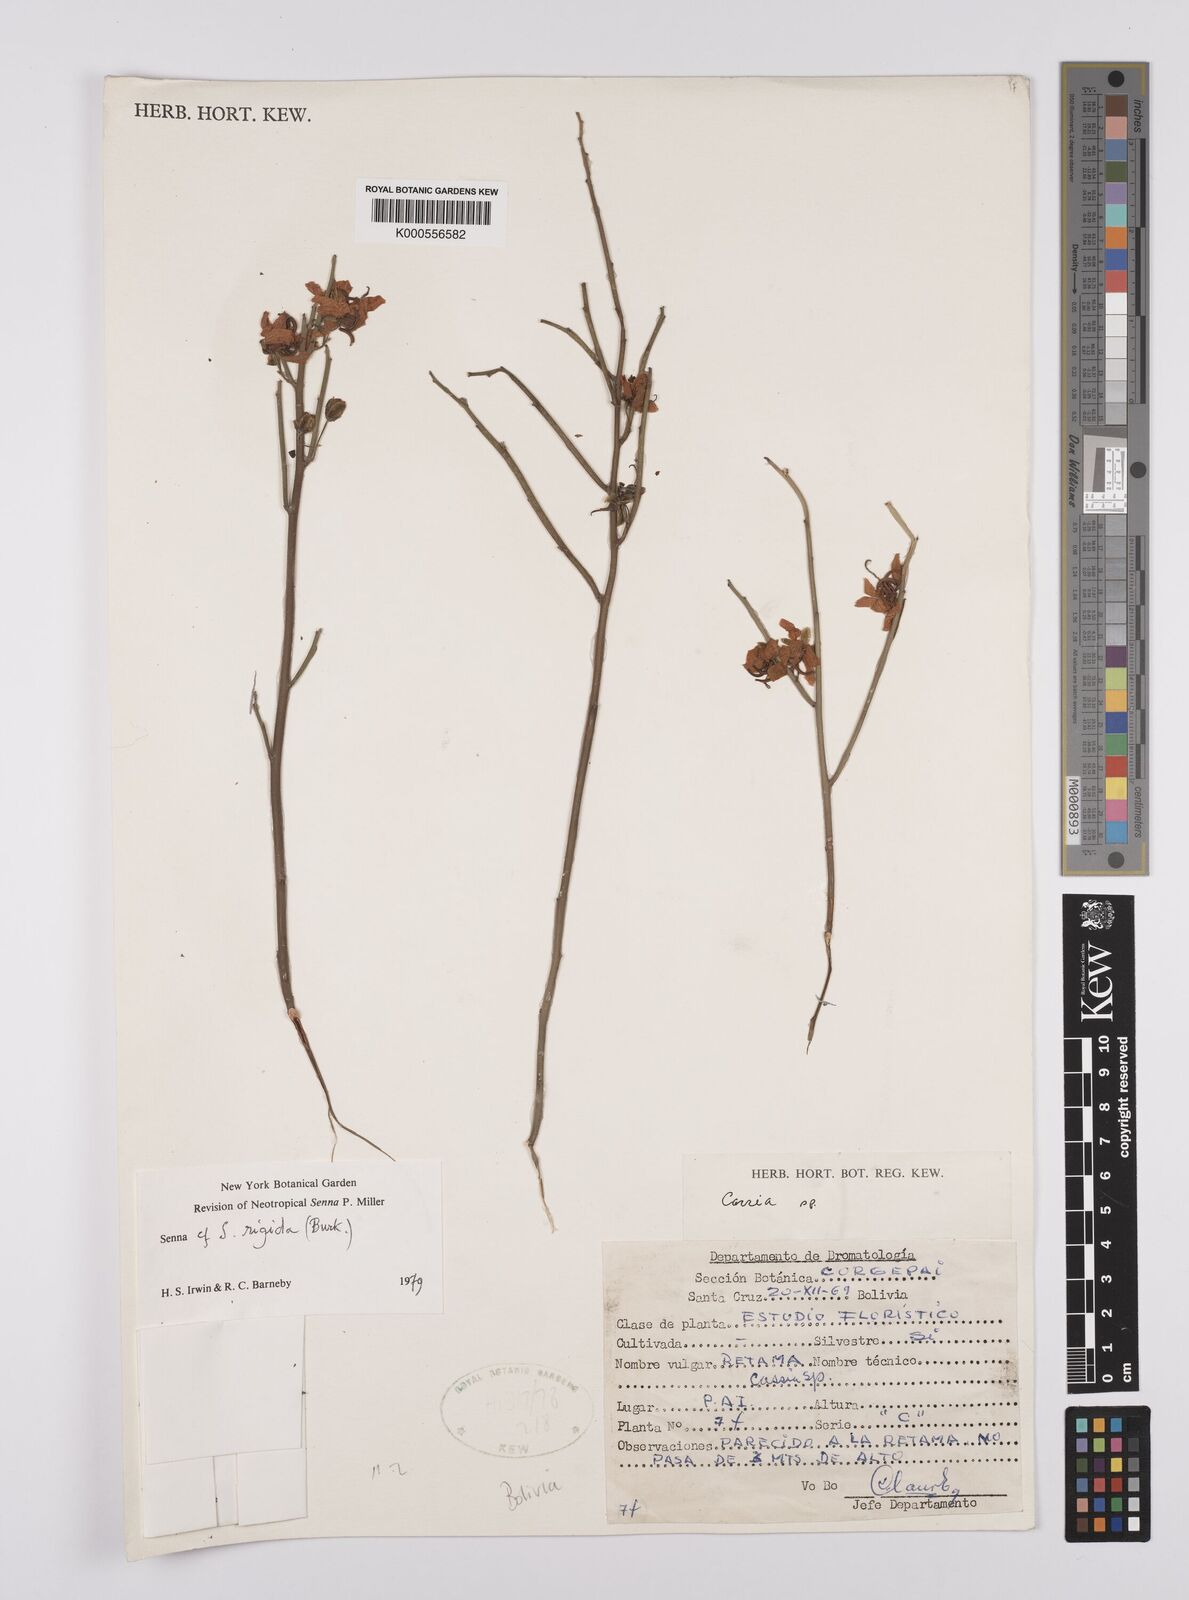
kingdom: Plantae
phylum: Tracheophyta
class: Magnoliopsida
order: Fabales
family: Fabaceae
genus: Senna
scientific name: Senna aphylla
